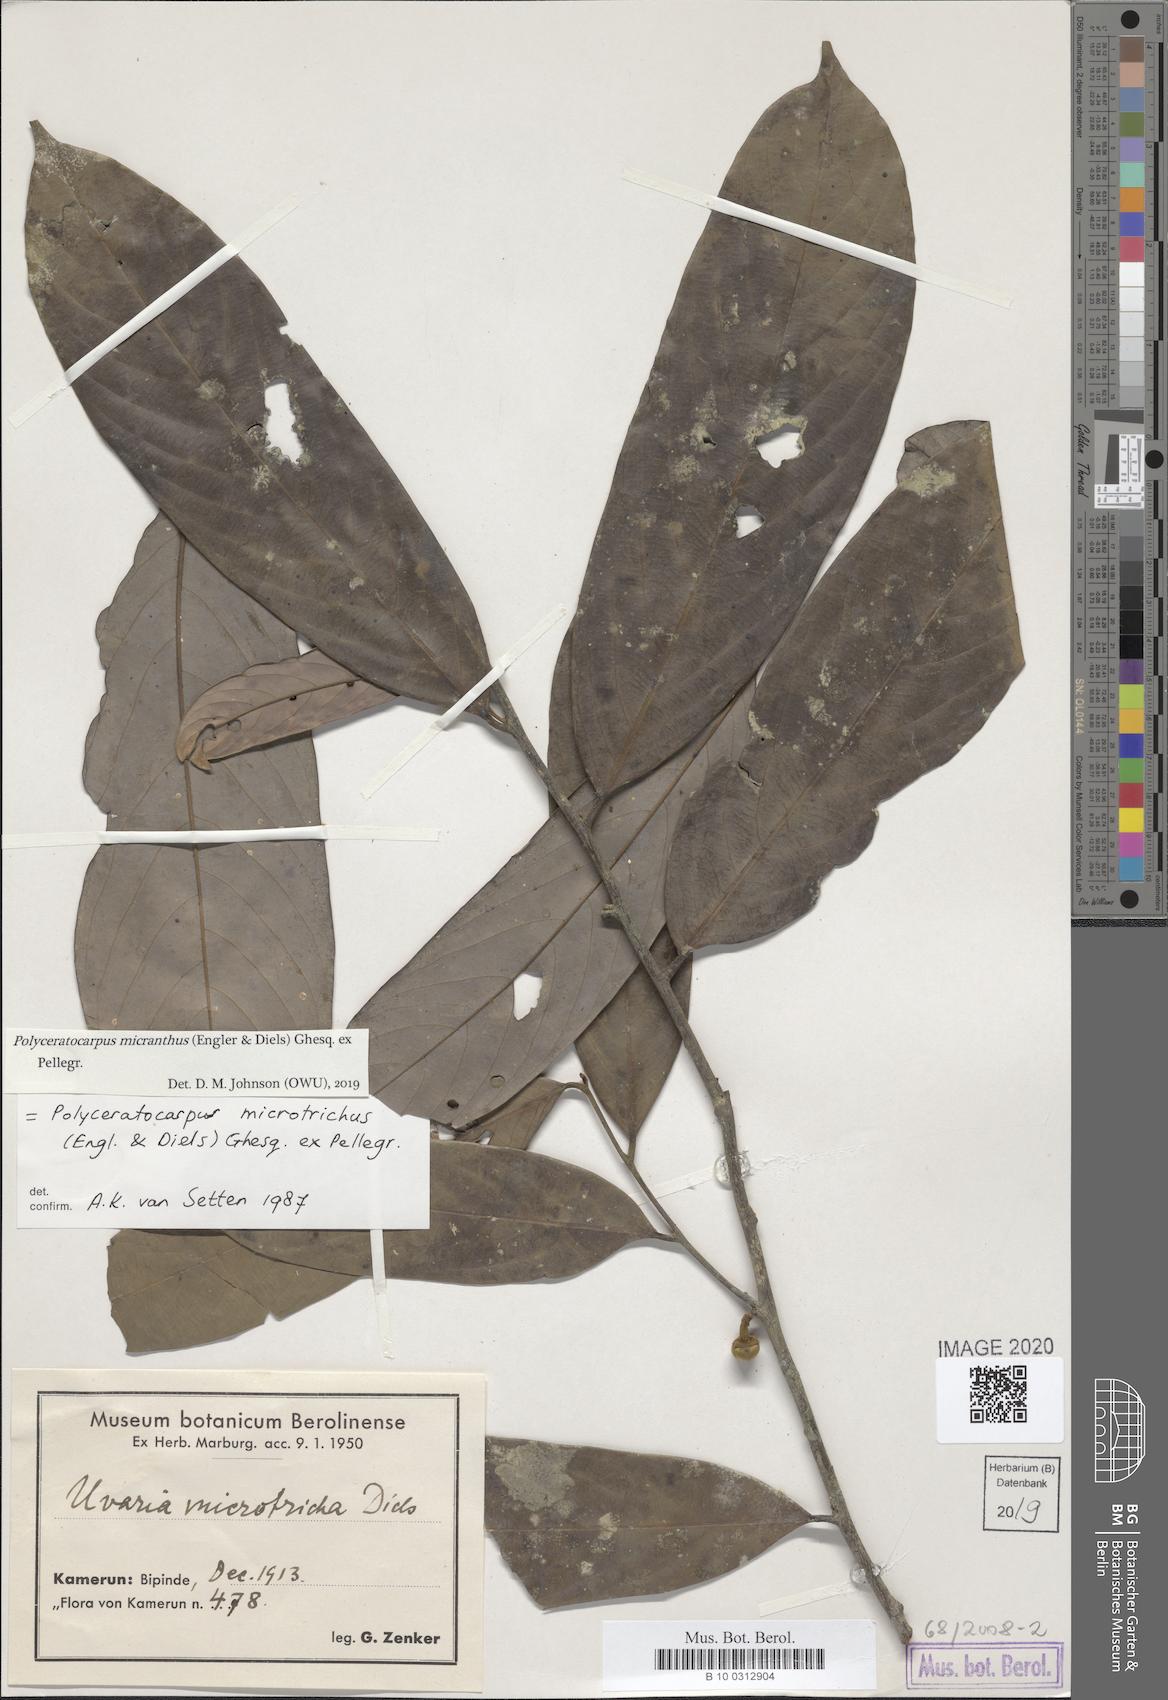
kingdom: Plantae
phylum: Tracheophyta
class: Magnoliopsida
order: Magnoliales
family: Annonaceae
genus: Polyceratocarpus
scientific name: Polyceratocarpus
